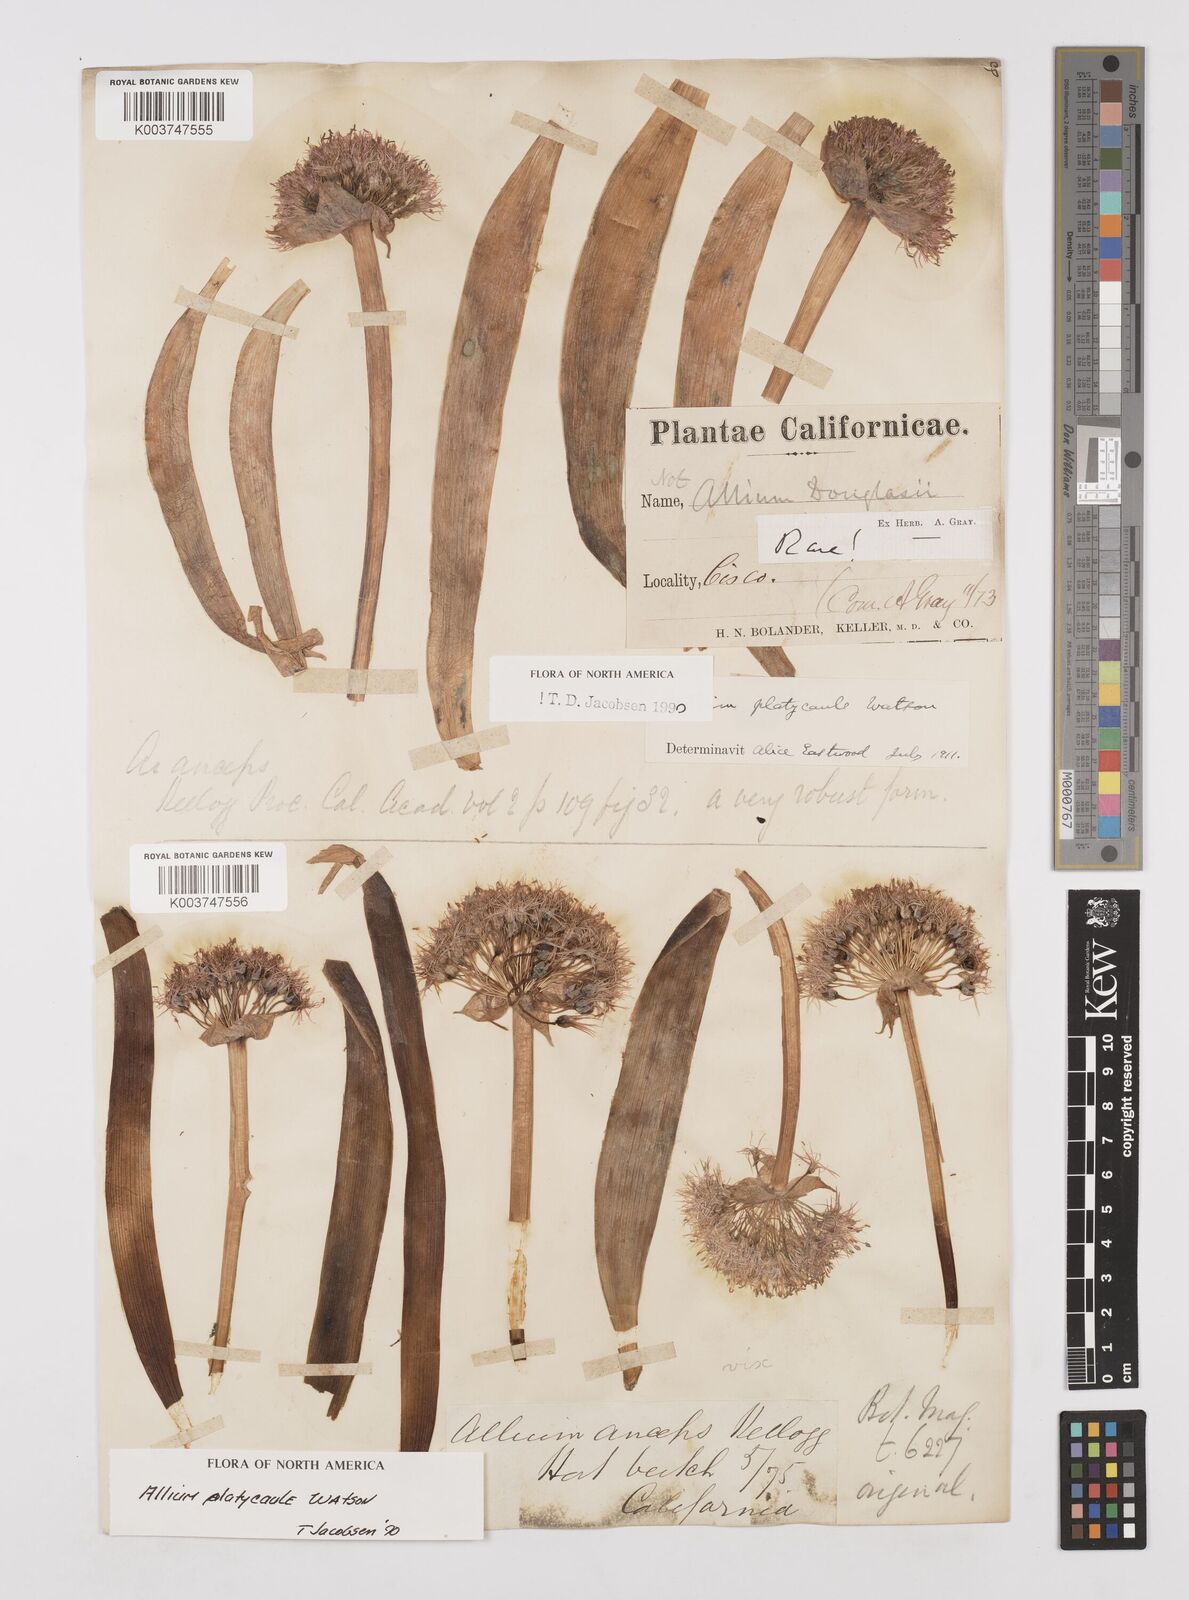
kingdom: Plantae
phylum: Tracheophyta
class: Liliopsida
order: Asparagales
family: Amaryllidaceae
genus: Allium
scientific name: Allium platycaule
